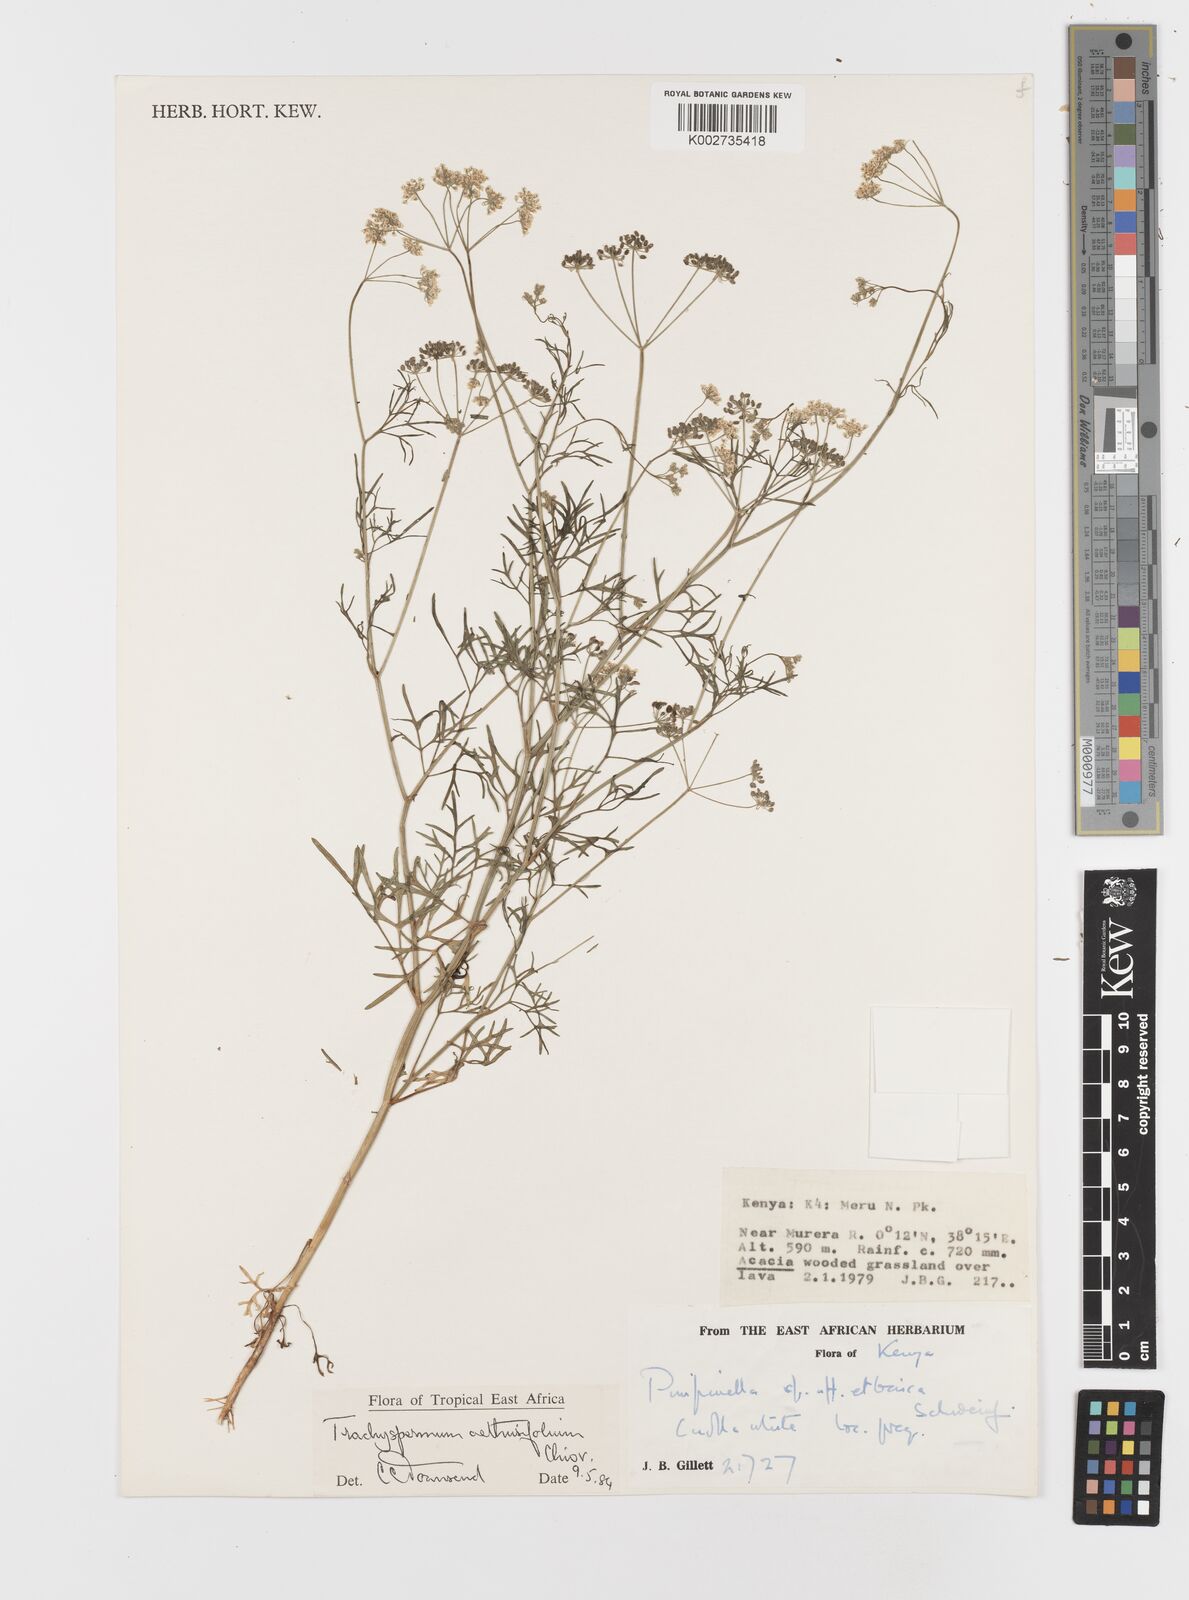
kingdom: Plantae
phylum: Tracheophyta
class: Magnoliopsida
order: Apiales
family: Apiaceae
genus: Trachyspermum
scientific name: Trachyspermum pimpinelloides
